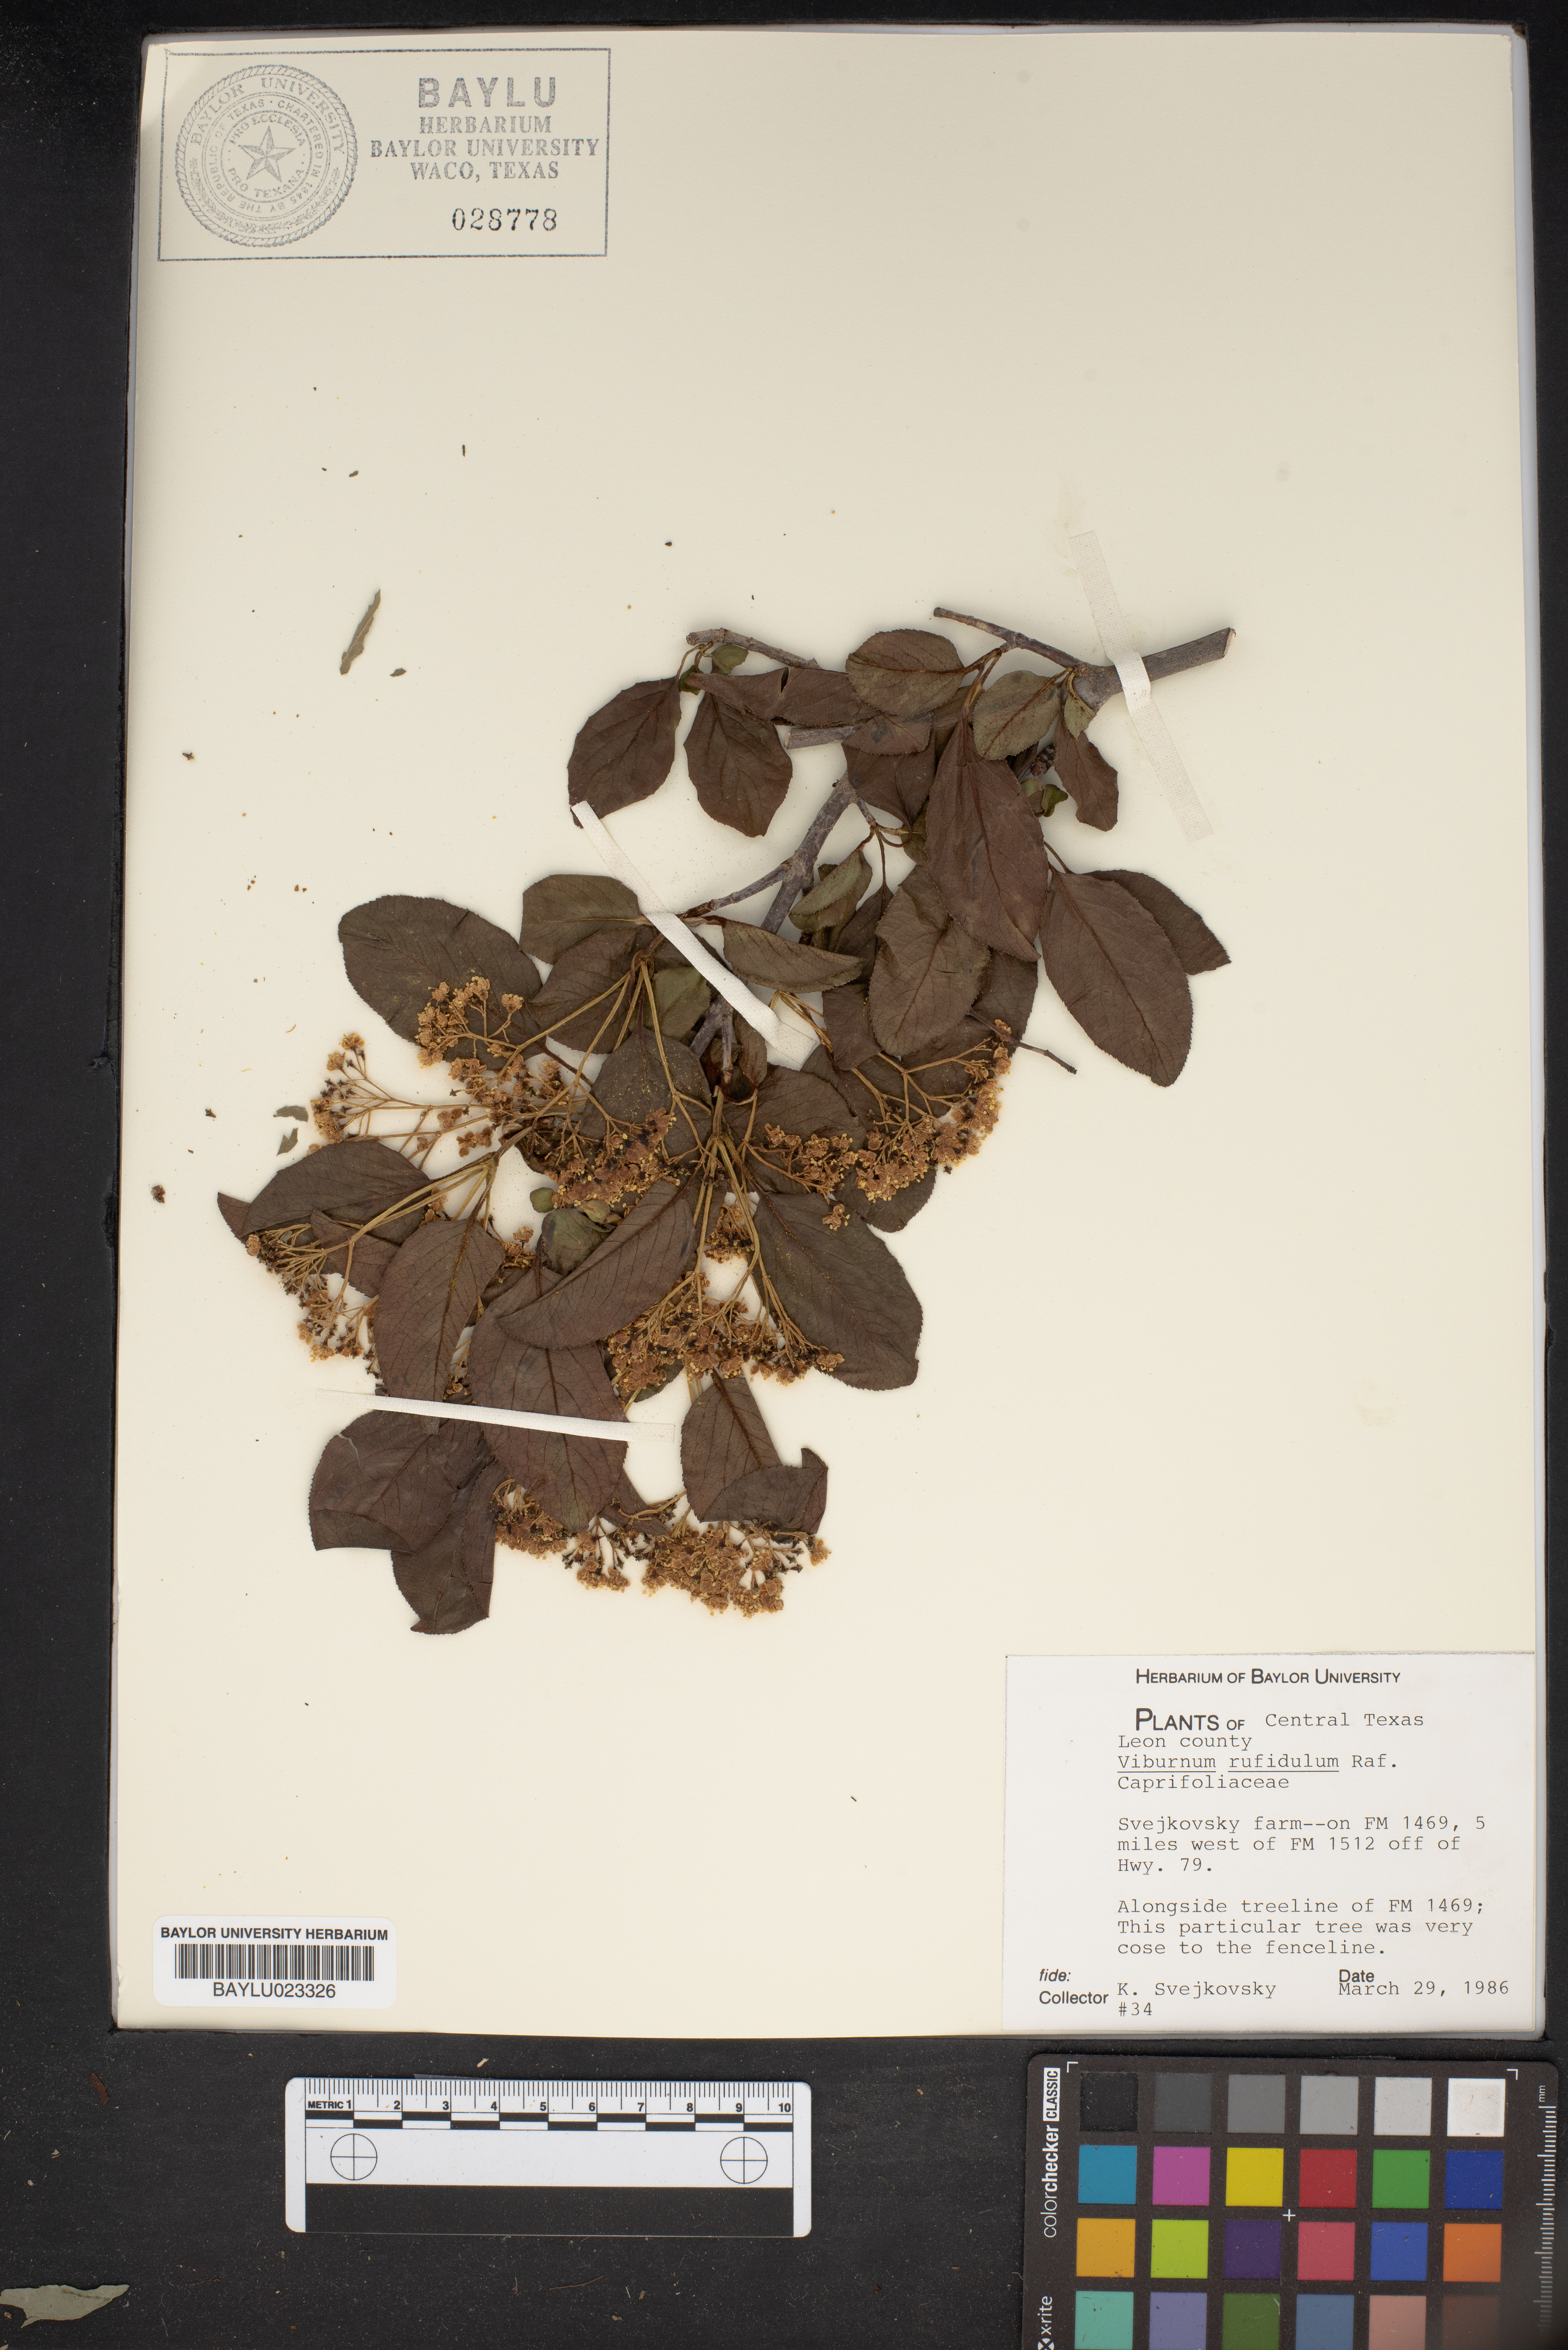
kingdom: Plantae
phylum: Tracheophyta
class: Magnoliopsida
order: Dipsacales
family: Viburnaceae
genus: Viburnum
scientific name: Viburnum rufidulum
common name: Blue haw
